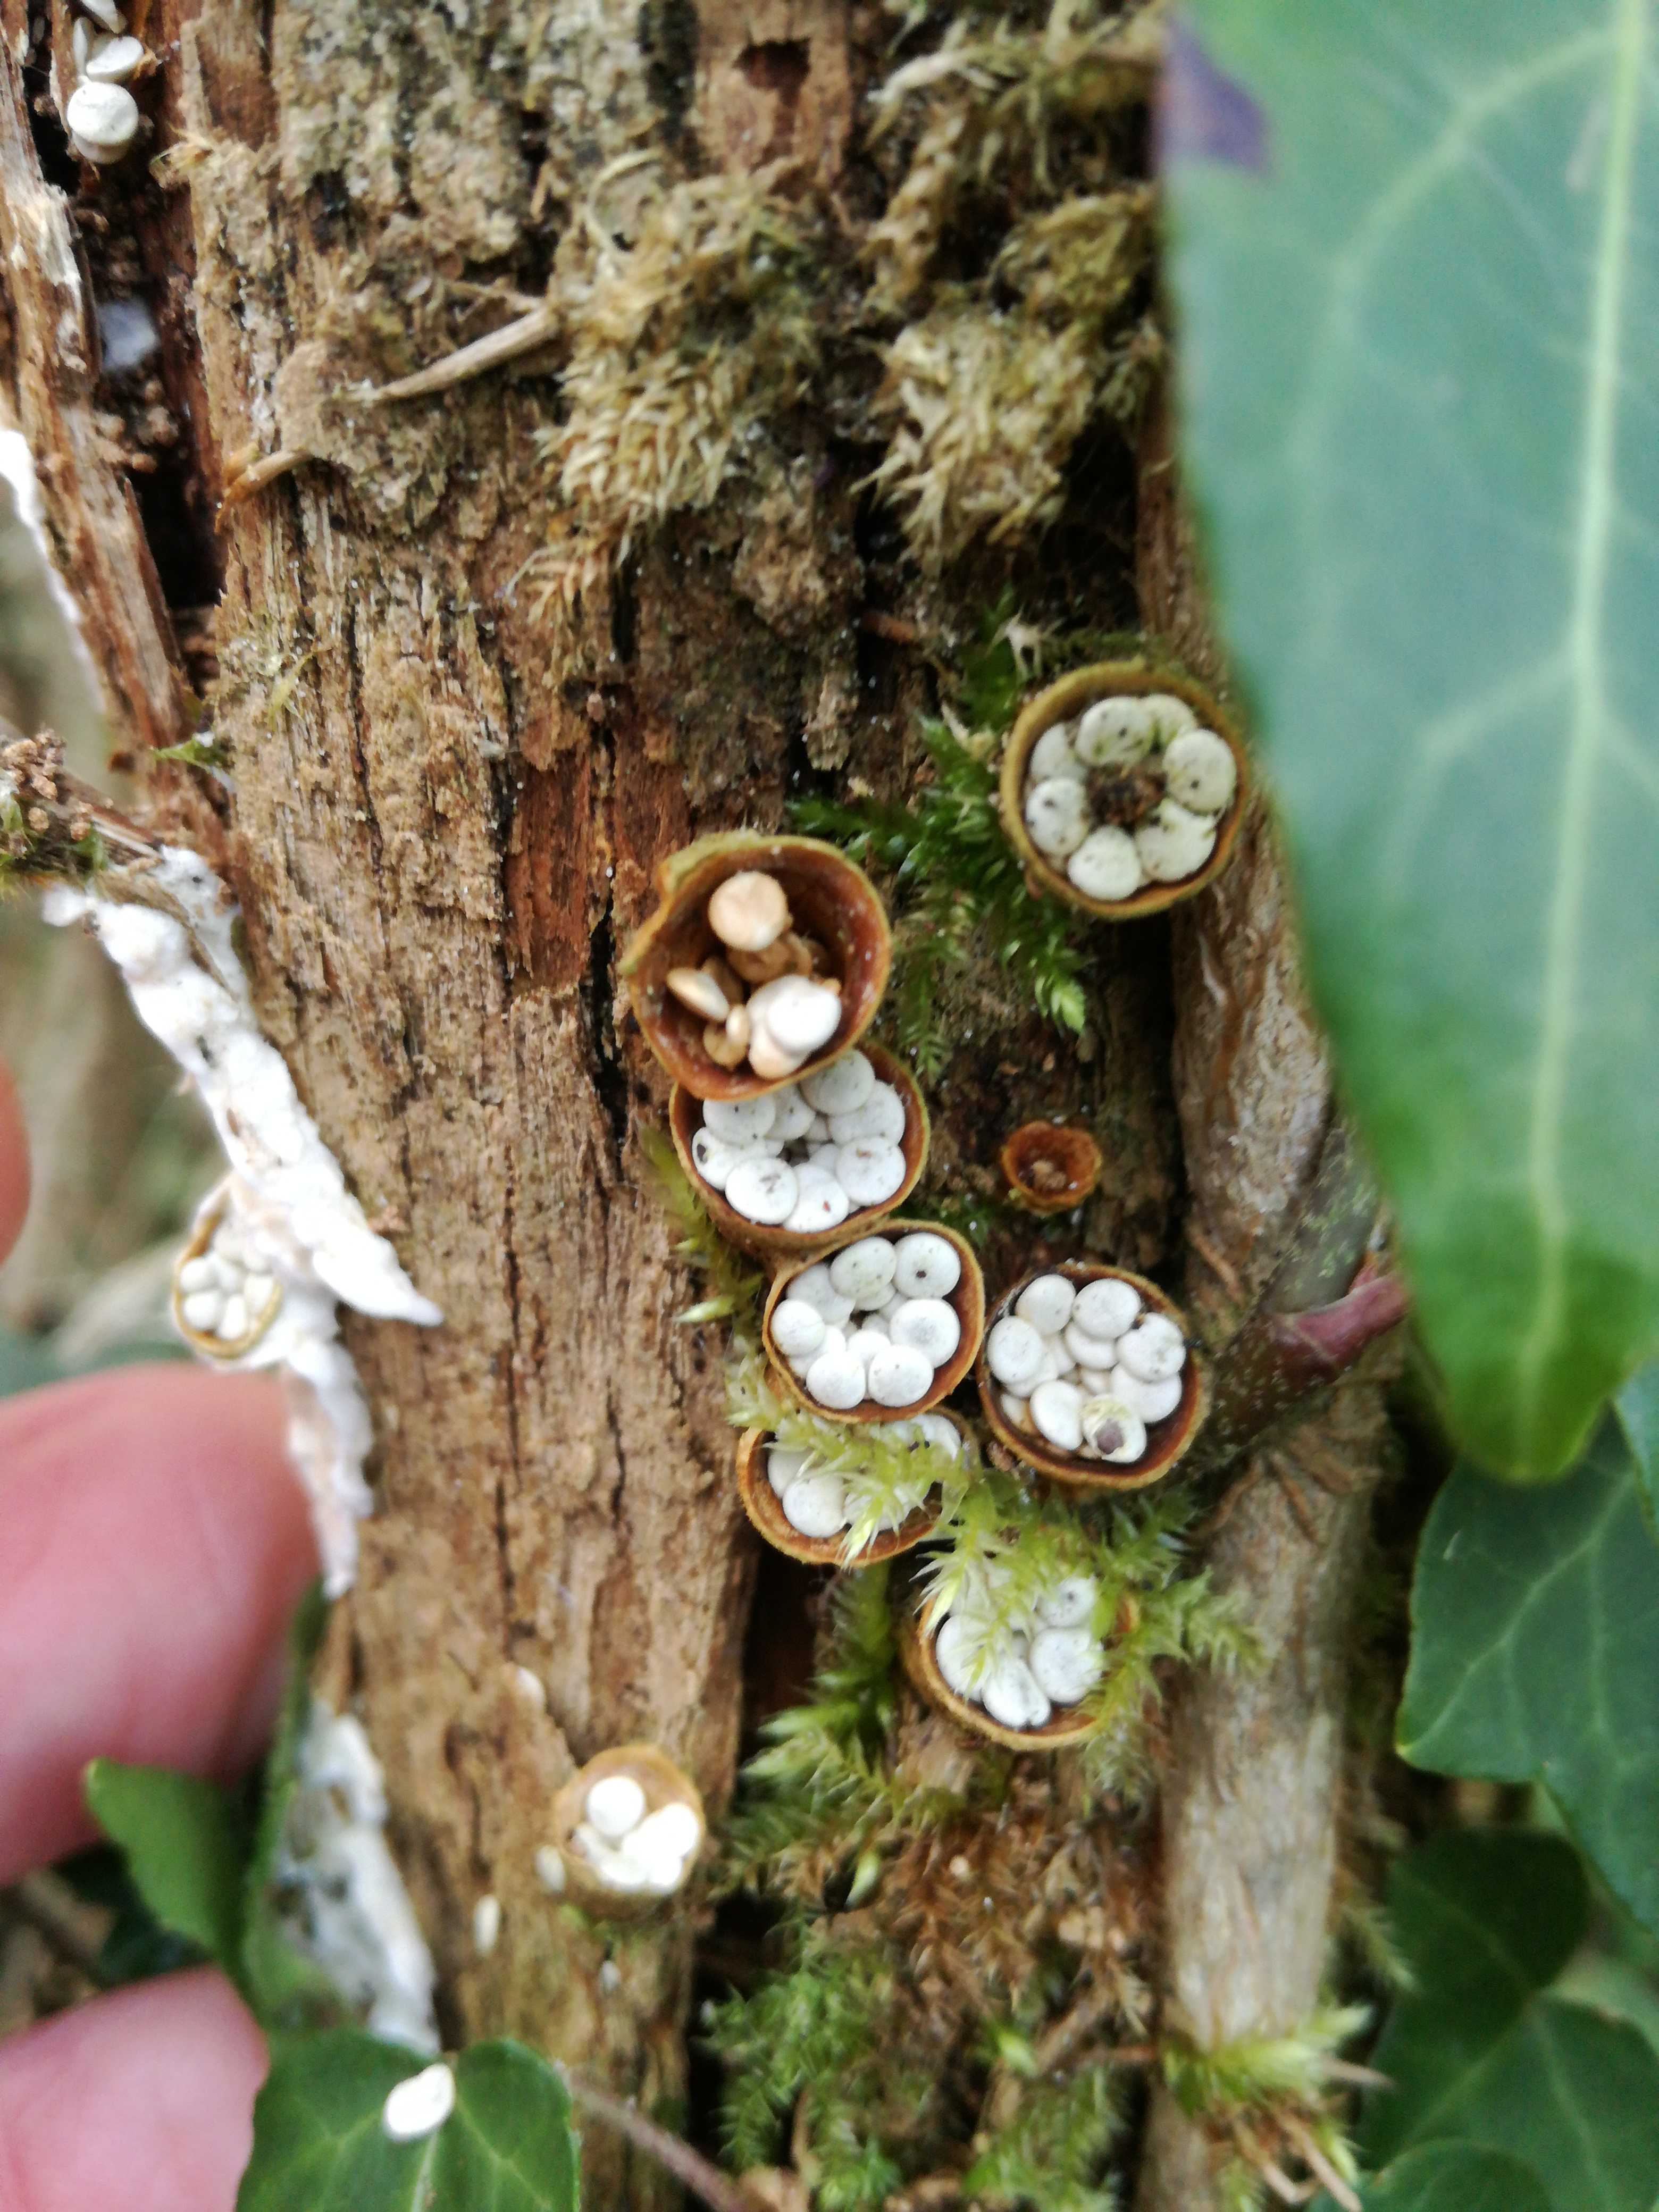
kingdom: Fungi
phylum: Basidiomycota
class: Agaricomycetes
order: Agaricales
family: Nidulariaceae
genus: Crucibulum
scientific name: Crucibulum crucibuliforme
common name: krukkesvamp
